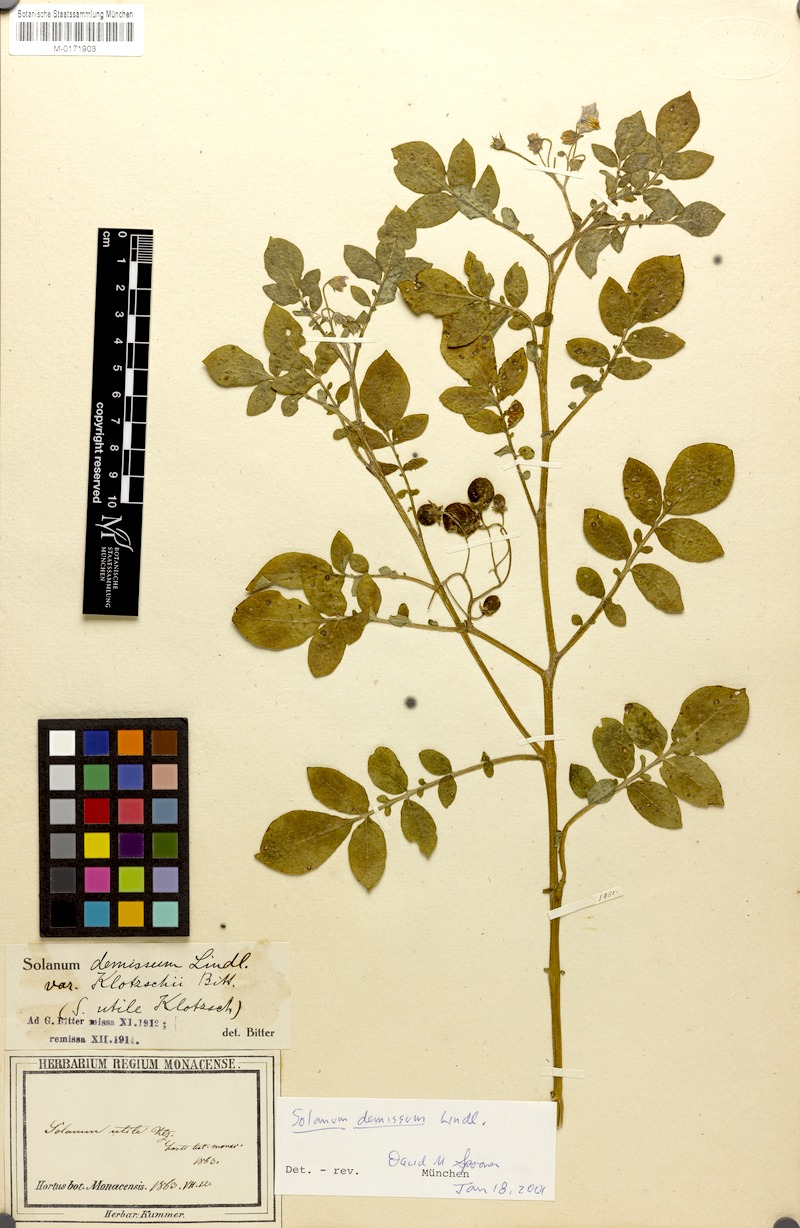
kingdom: Plantae
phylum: Tracheophyta
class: Magnoliopsida
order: Solanales
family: Solanaceae
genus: Solanum
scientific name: Solanum demissum
